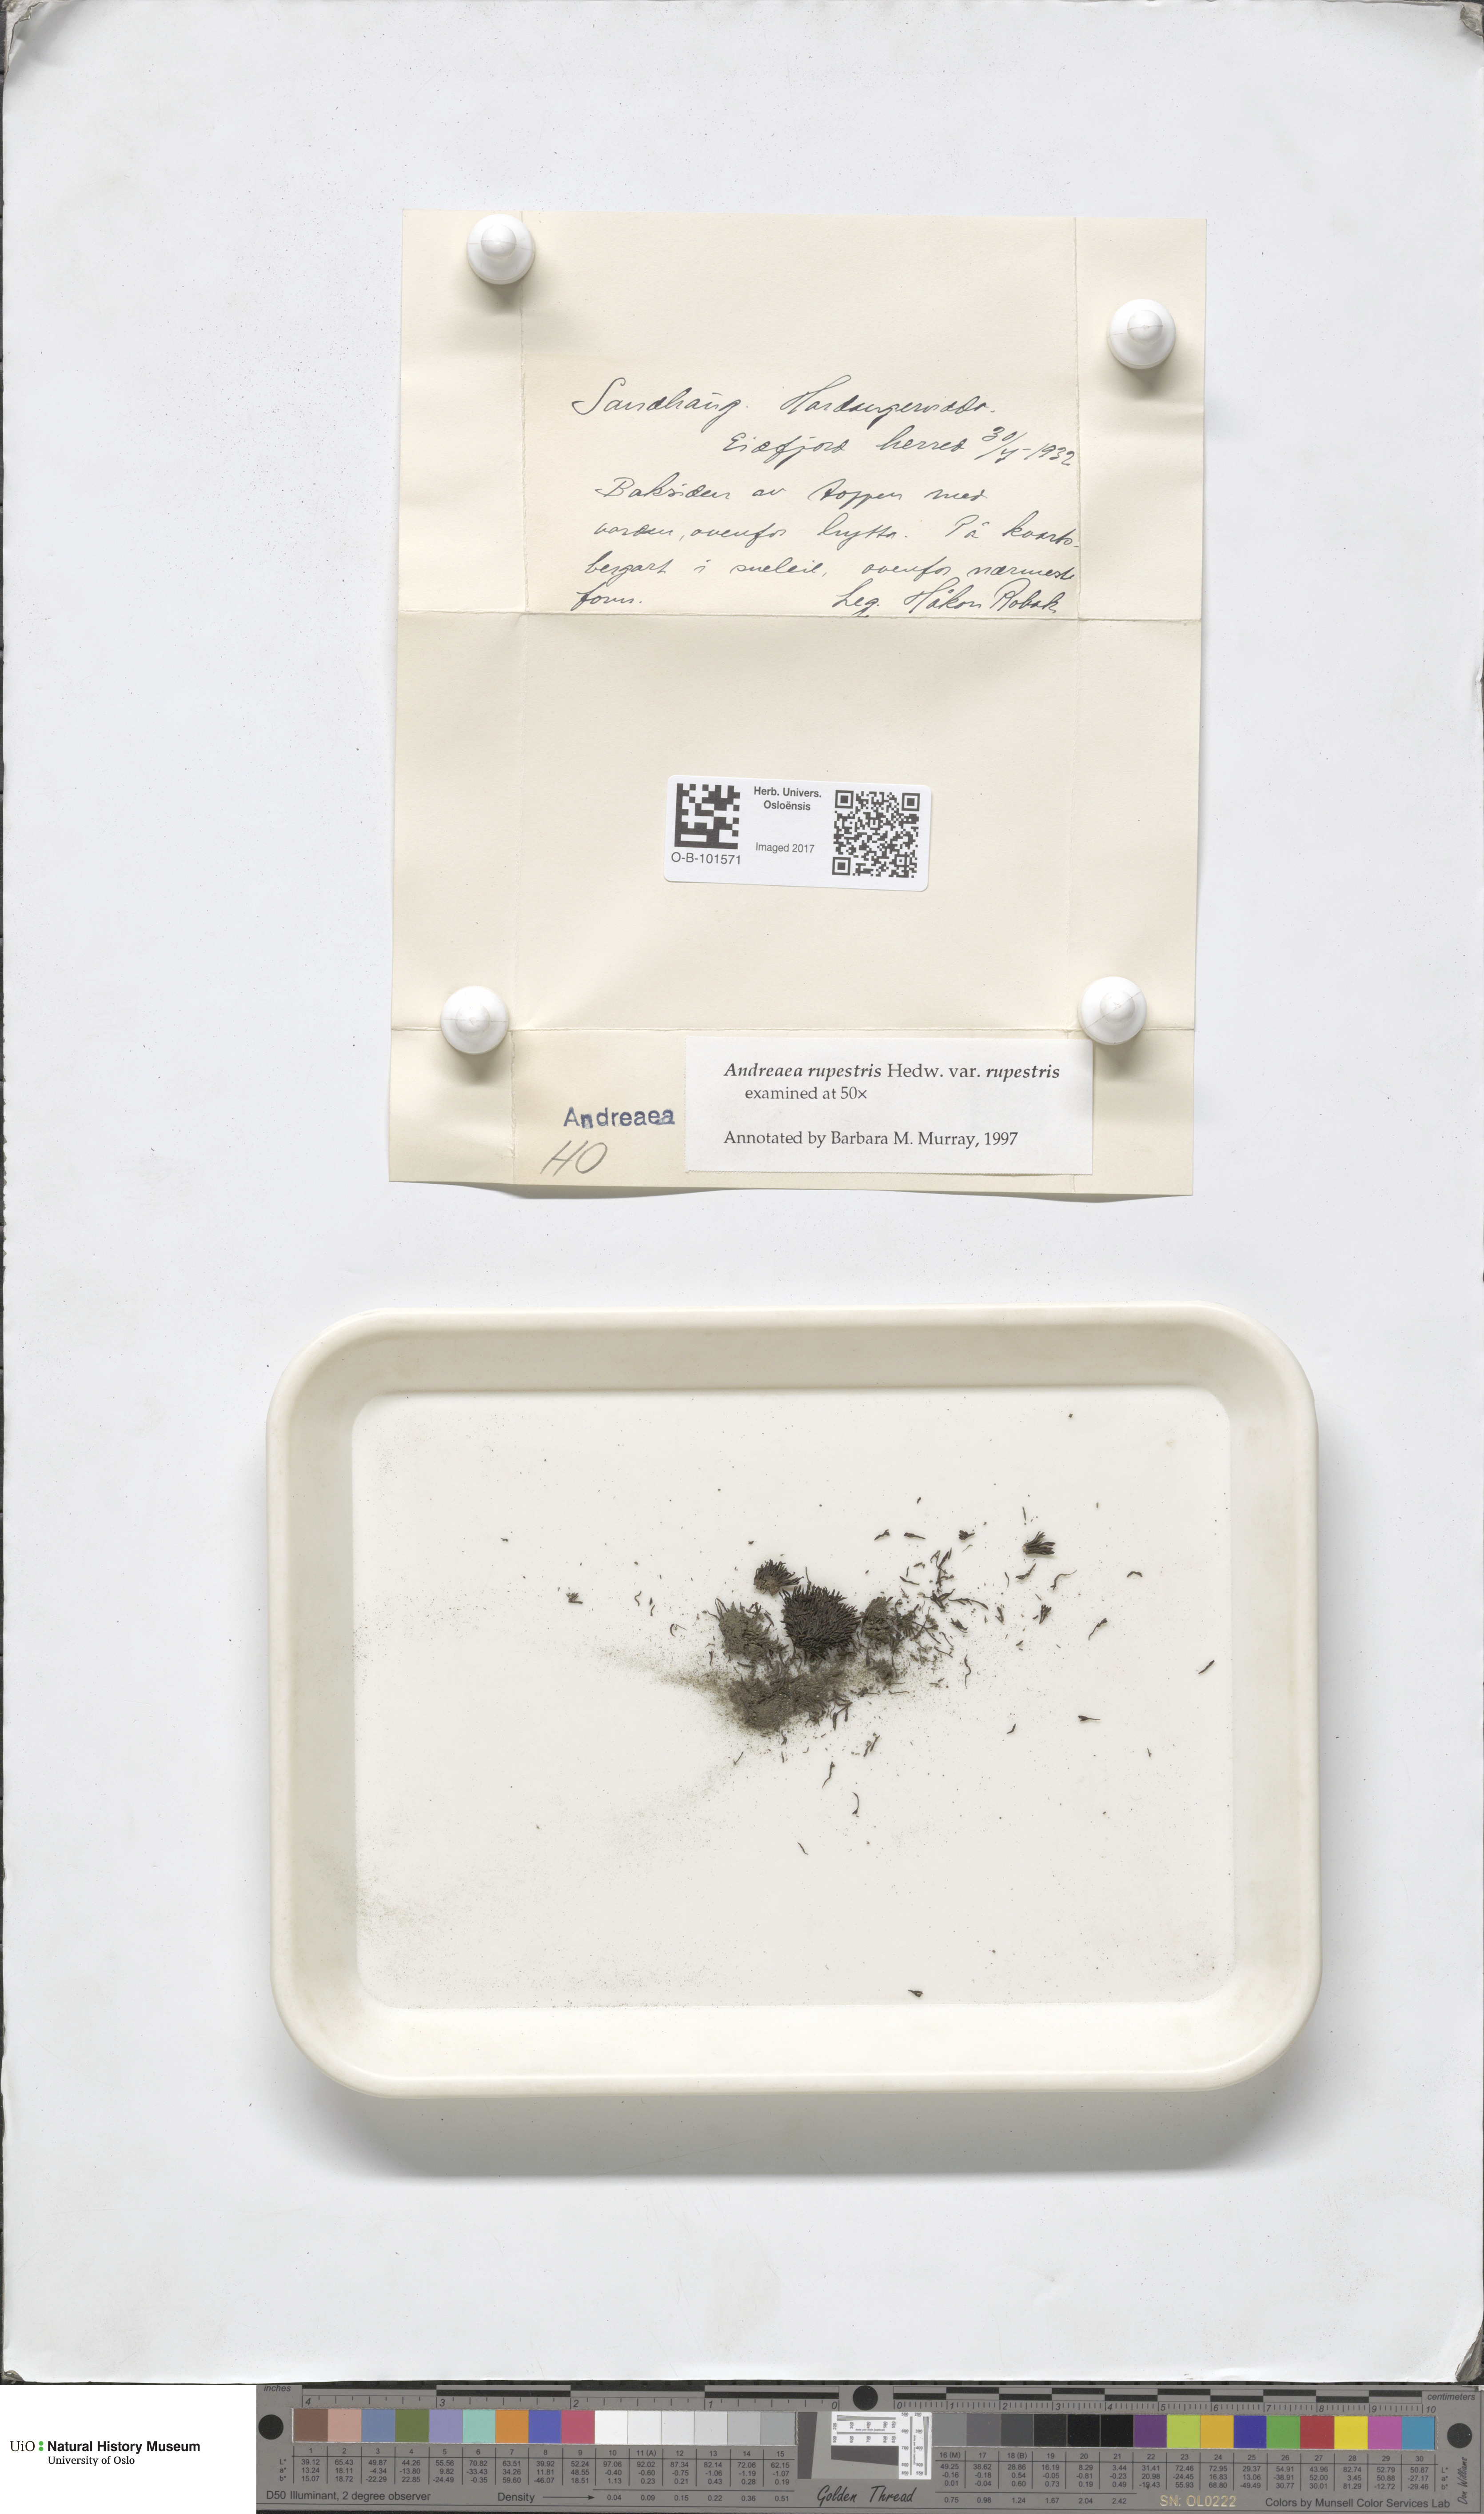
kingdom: Plantae
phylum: Bryophyta
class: Andreaeopsida
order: Andreaeales
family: Andreaeaceae
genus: Andreaea
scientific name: Andreaea rupestris
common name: Black rock moss
